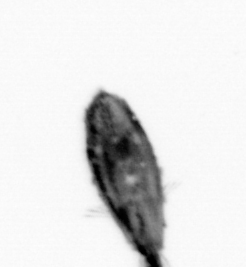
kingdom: Animalia
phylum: Arthropoda
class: Maxillopoda
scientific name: Maxillopoda
